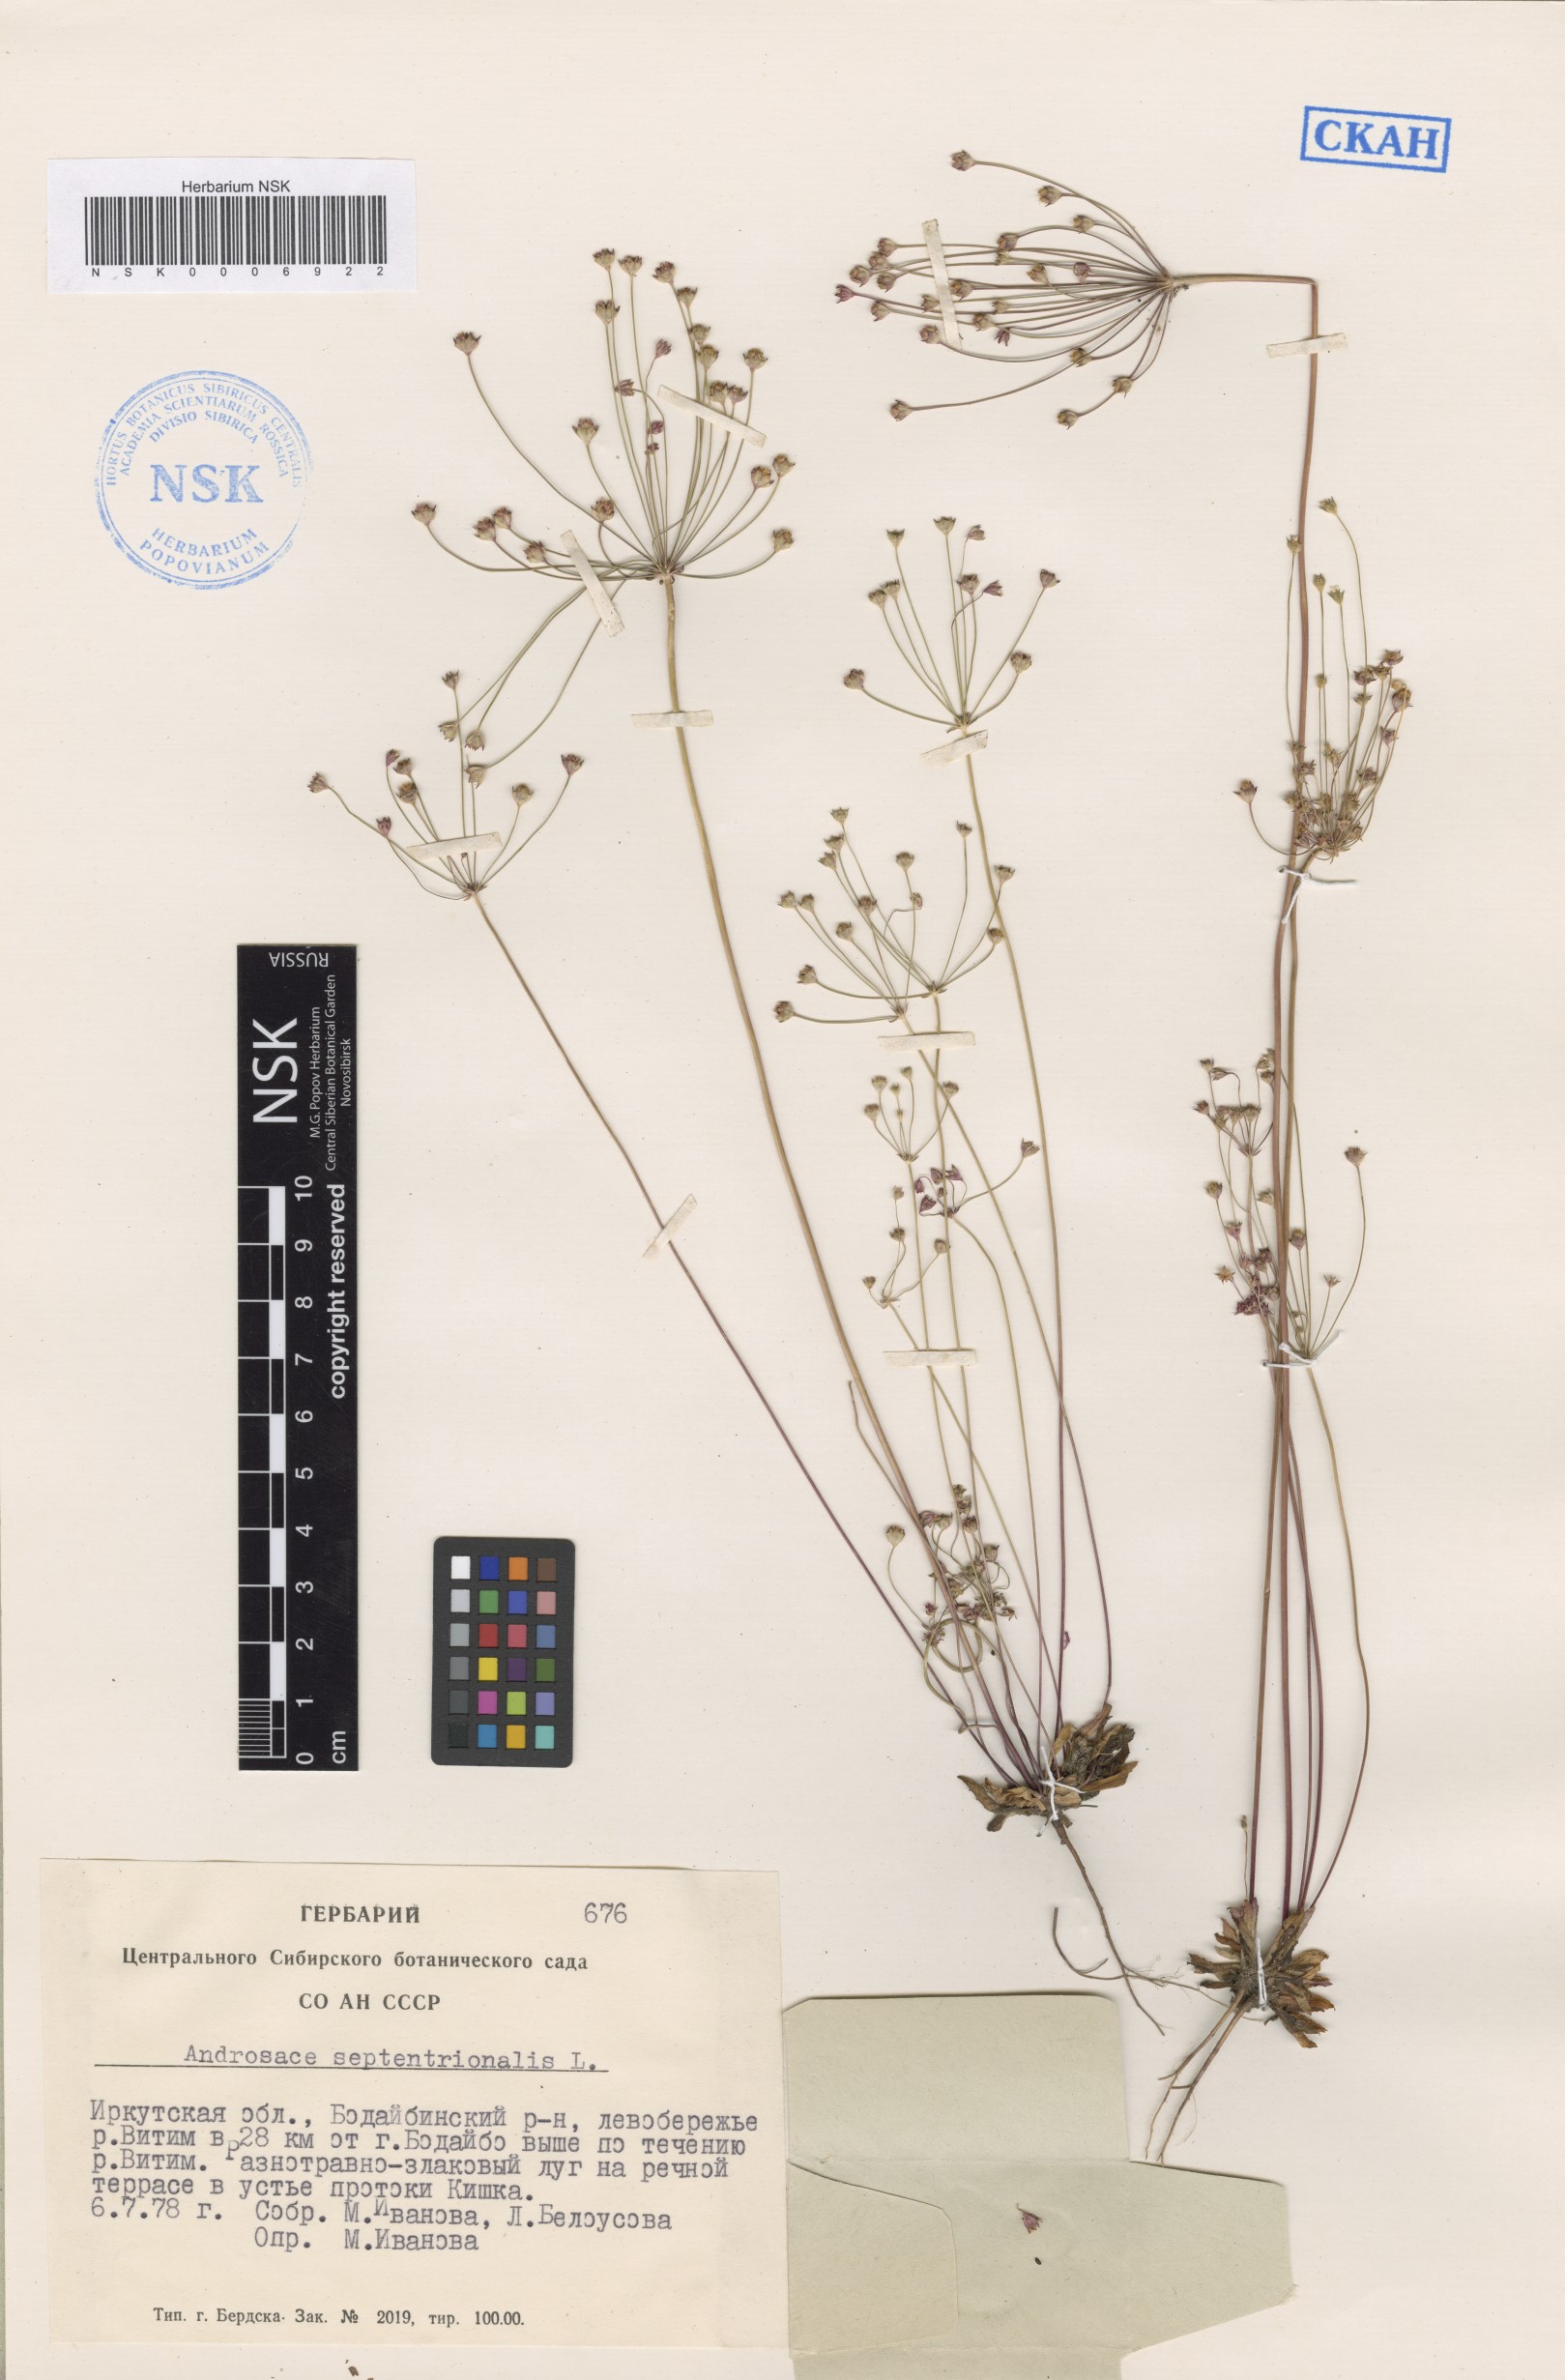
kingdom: Plantae
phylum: Tracheophyta
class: Magnoliopsida
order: Ericales
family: Primulaceae
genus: Androsace
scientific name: Androsace septentrionalis
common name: Hairy northern fairy-candelabra
